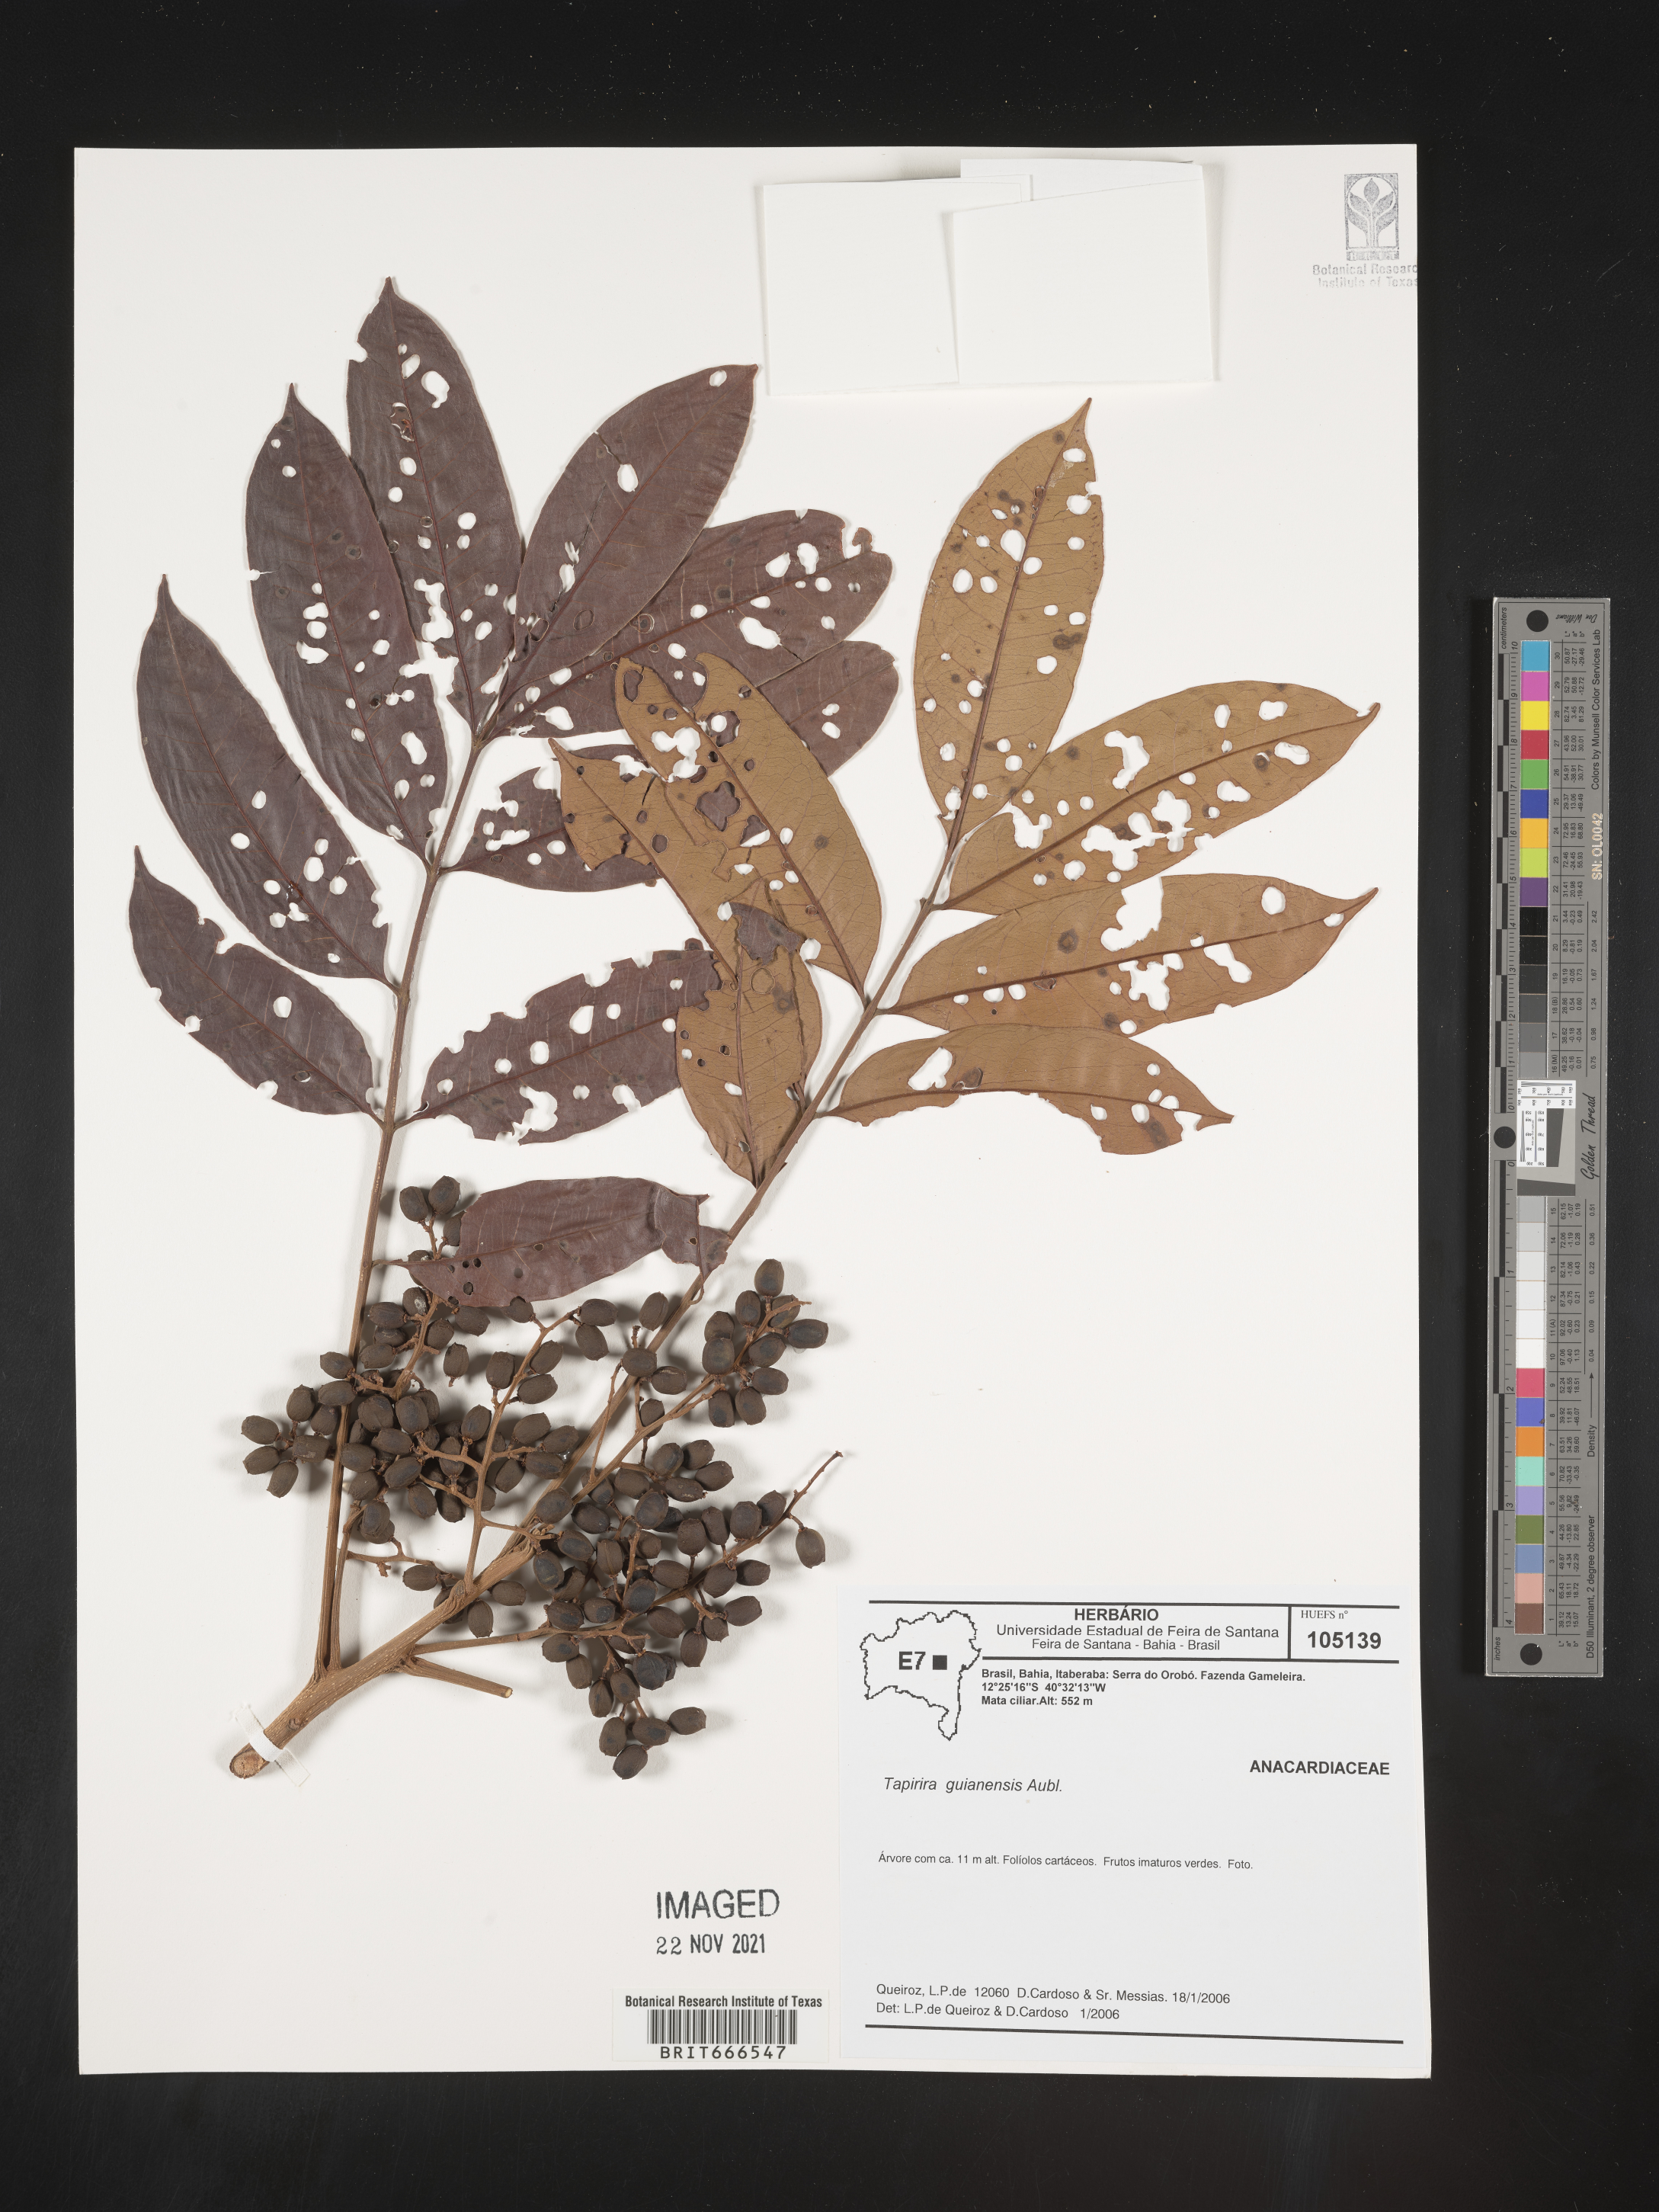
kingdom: Plantae
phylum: Tracheophyta
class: Magnoliopsida
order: Sapindales
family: Anacardiaceae
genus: Tapirira
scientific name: Tapirira guianensis
